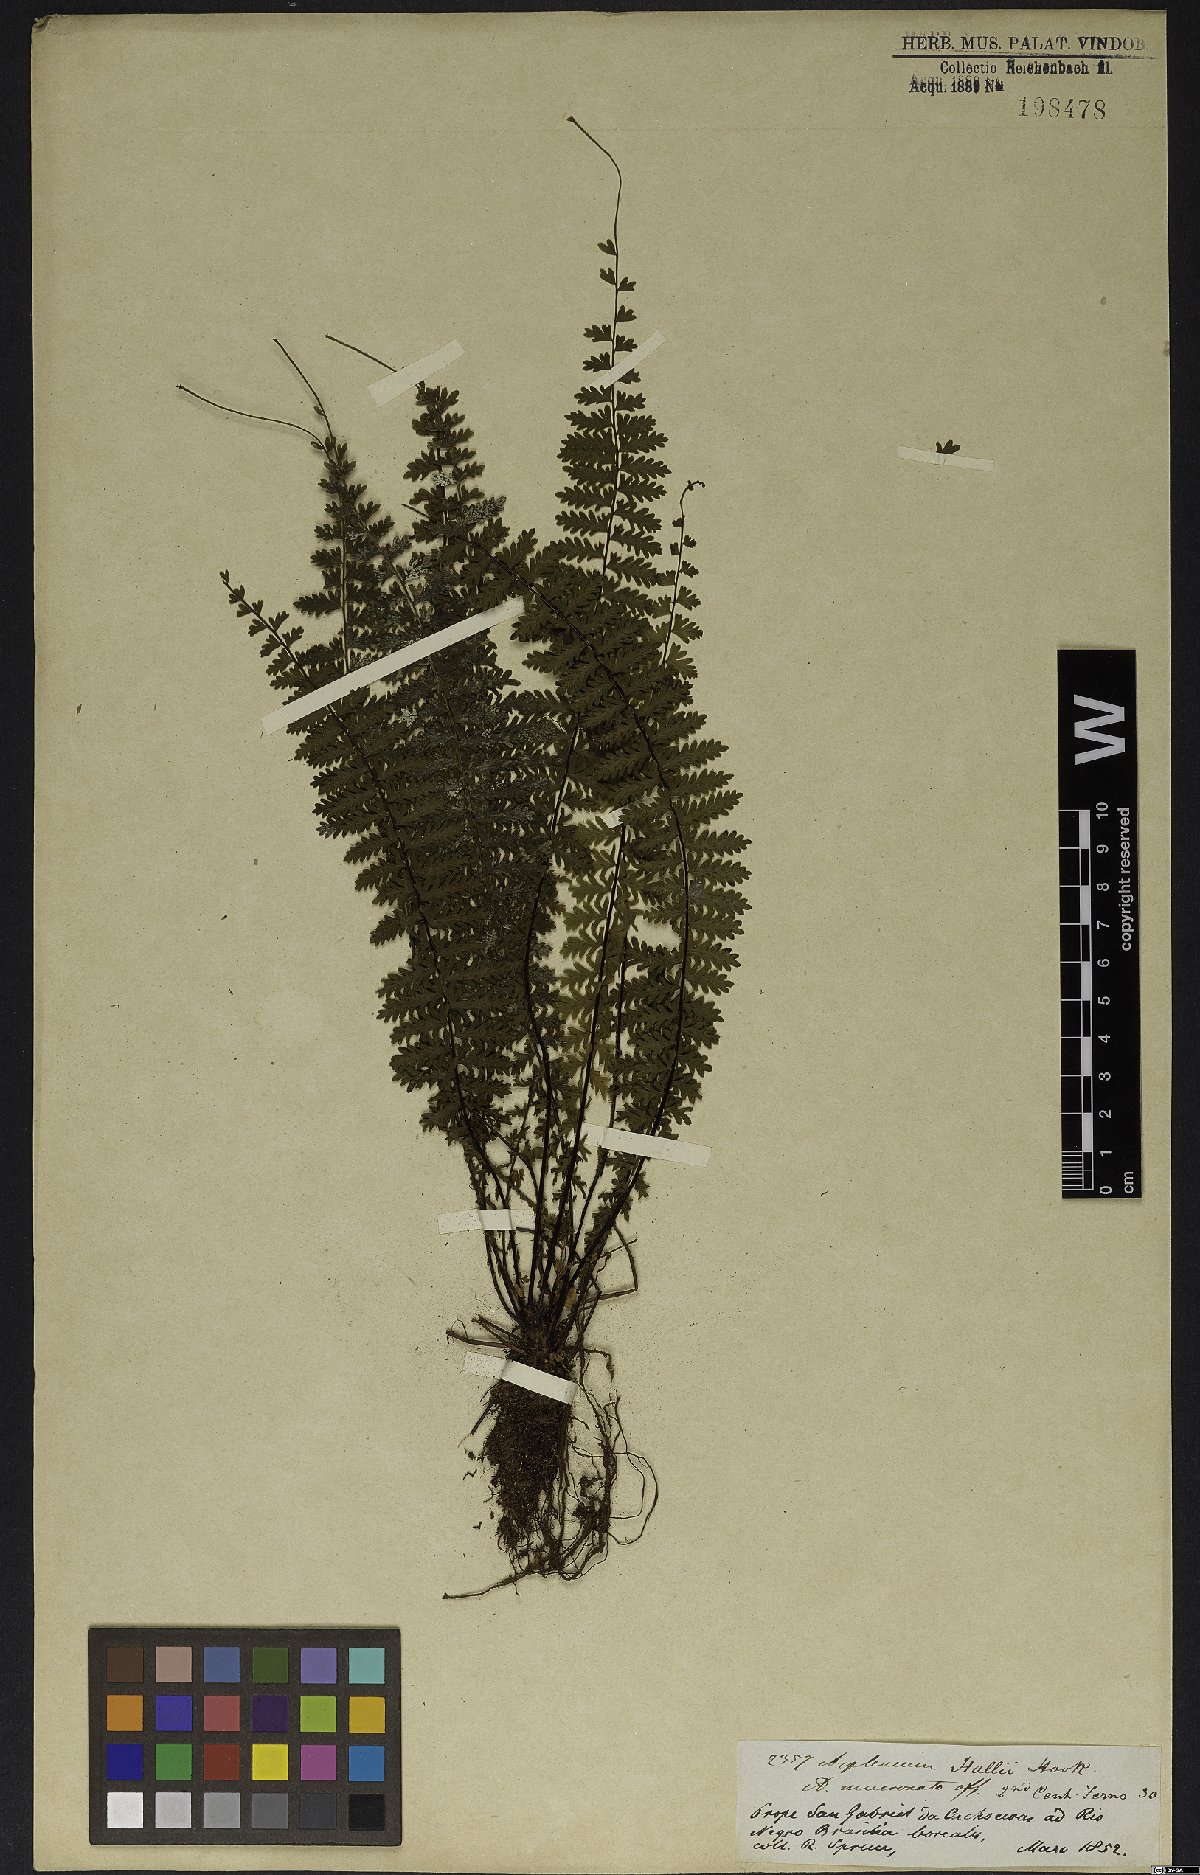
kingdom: Plantae
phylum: Tracheophyta
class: Polypodiopsida
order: Polypodiales
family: Aspleniaceae
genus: Asplenium
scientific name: Asplenium hallii
